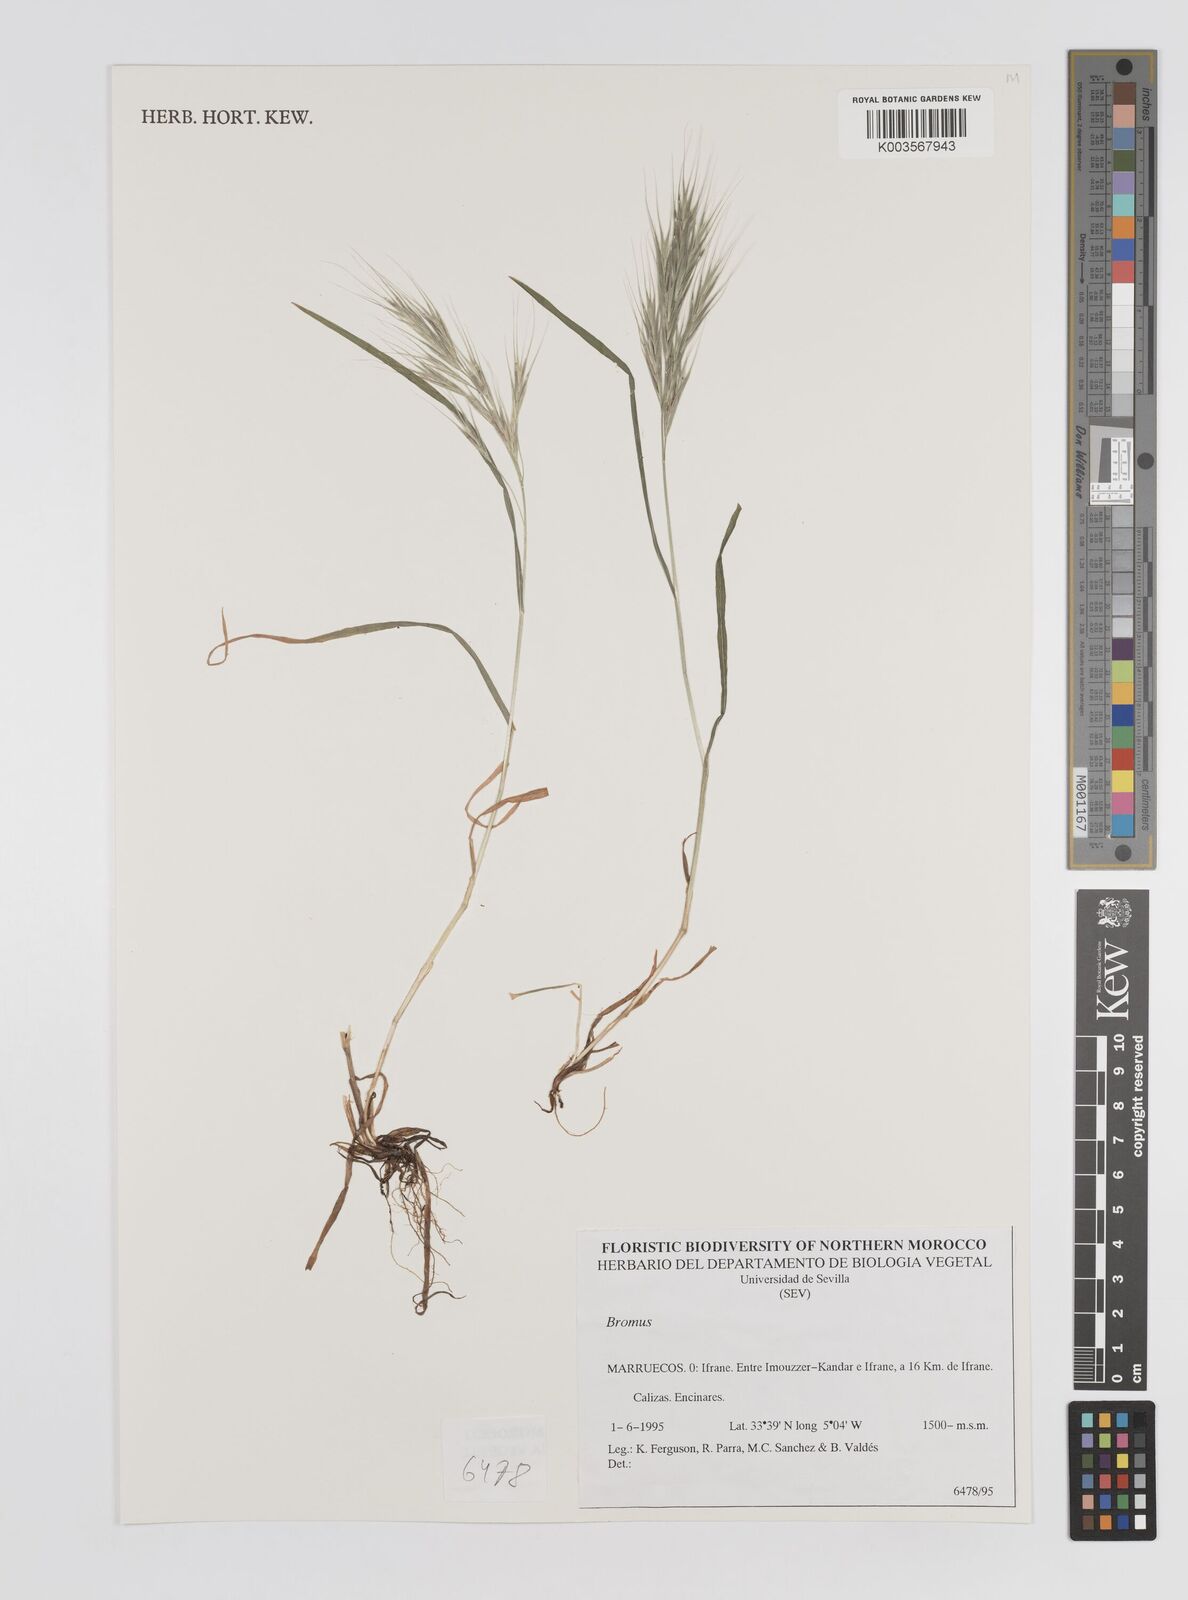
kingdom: Plantae
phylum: Tracheophyta
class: Liliopsida
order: Poales
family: Poaceae
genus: Bromus
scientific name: Bromus
